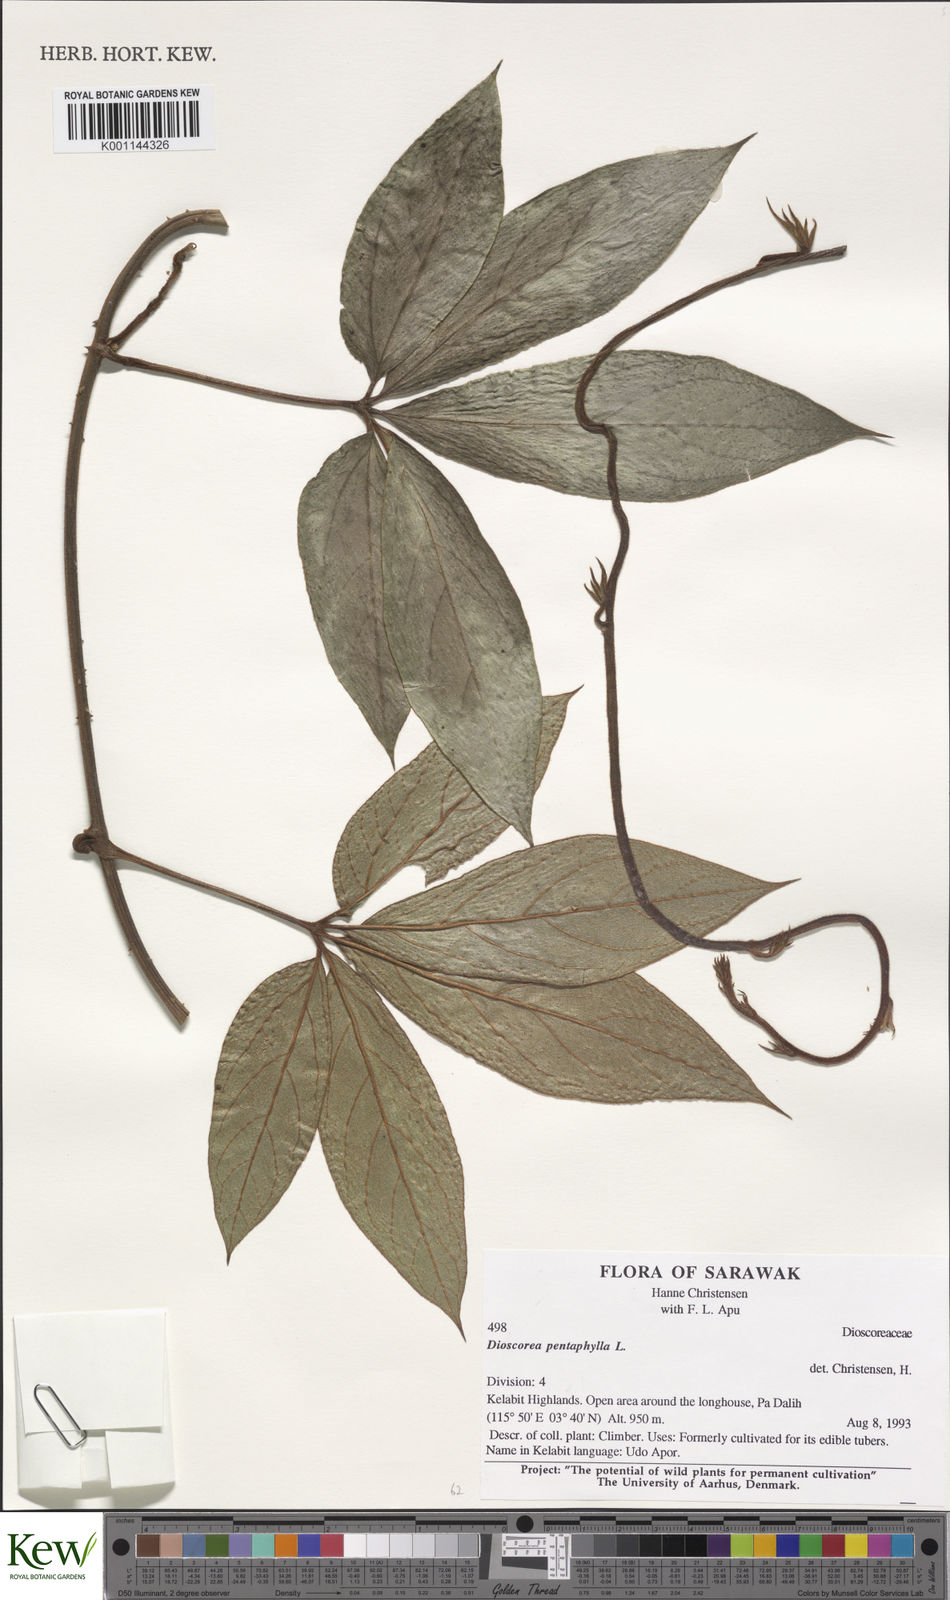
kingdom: Plantae
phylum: Tracheophyta
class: Liliopsida
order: Dioscoreales
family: Dioscoreaceae
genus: Dioscorea
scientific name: Dioscorea pentaphylla
